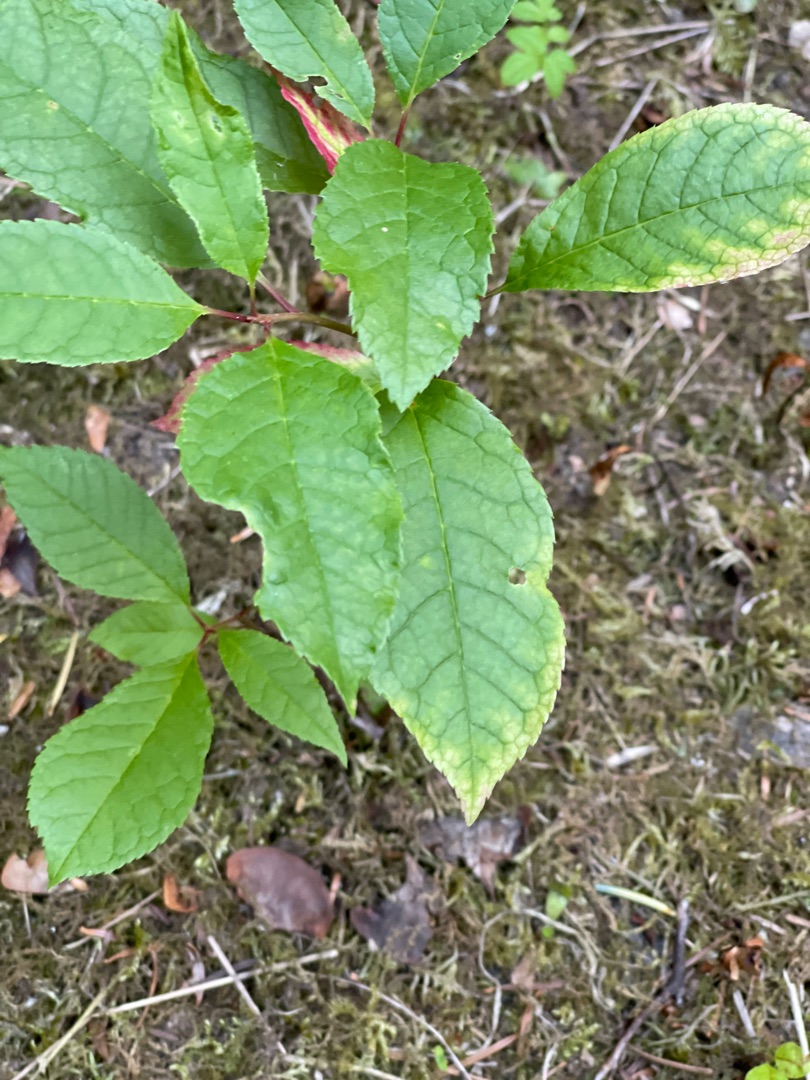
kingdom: Plantae
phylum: Tracheophyta
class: Magnoliopsida
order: Rosales
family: Rosaceae
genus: Prunus
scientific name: Prunus padus
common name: Almindelig hæg
